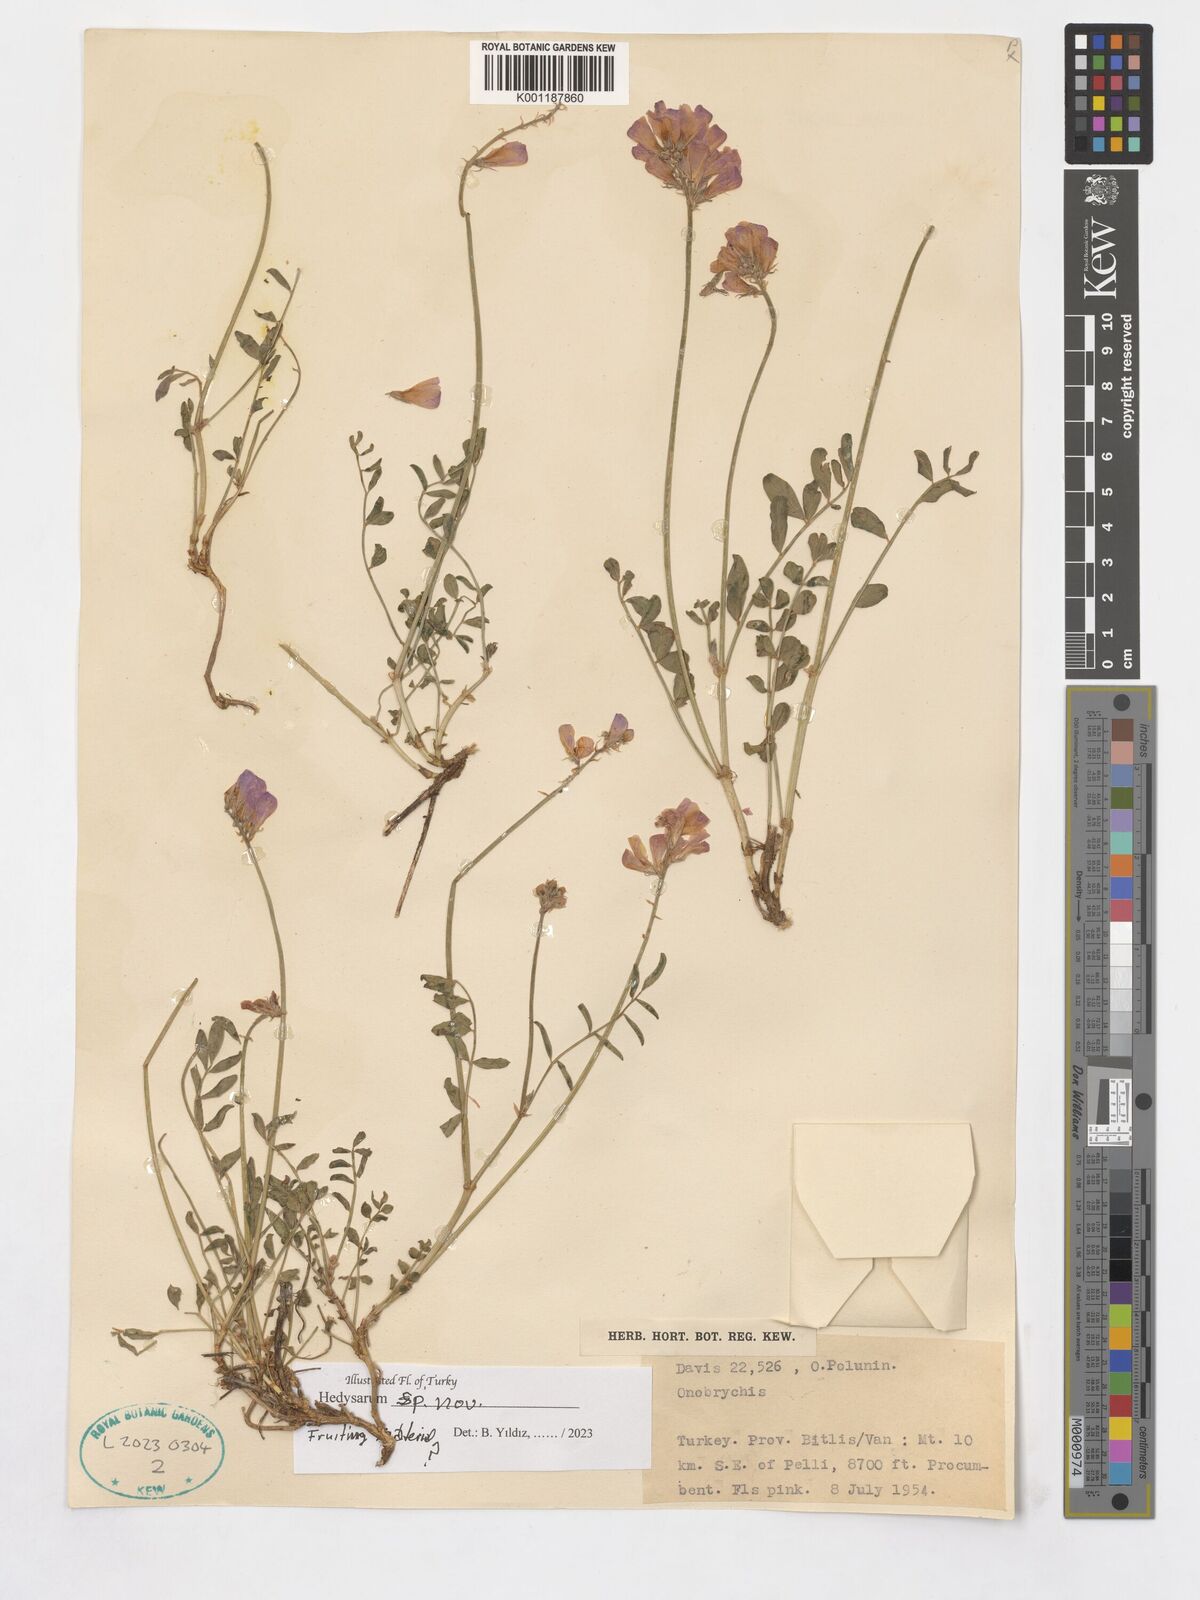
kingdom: Plantae
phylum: Tracheophyta
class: Magnoliopsida
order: Fabales
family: Fabaceae
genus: Hedysarum
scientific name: Hedysarum
